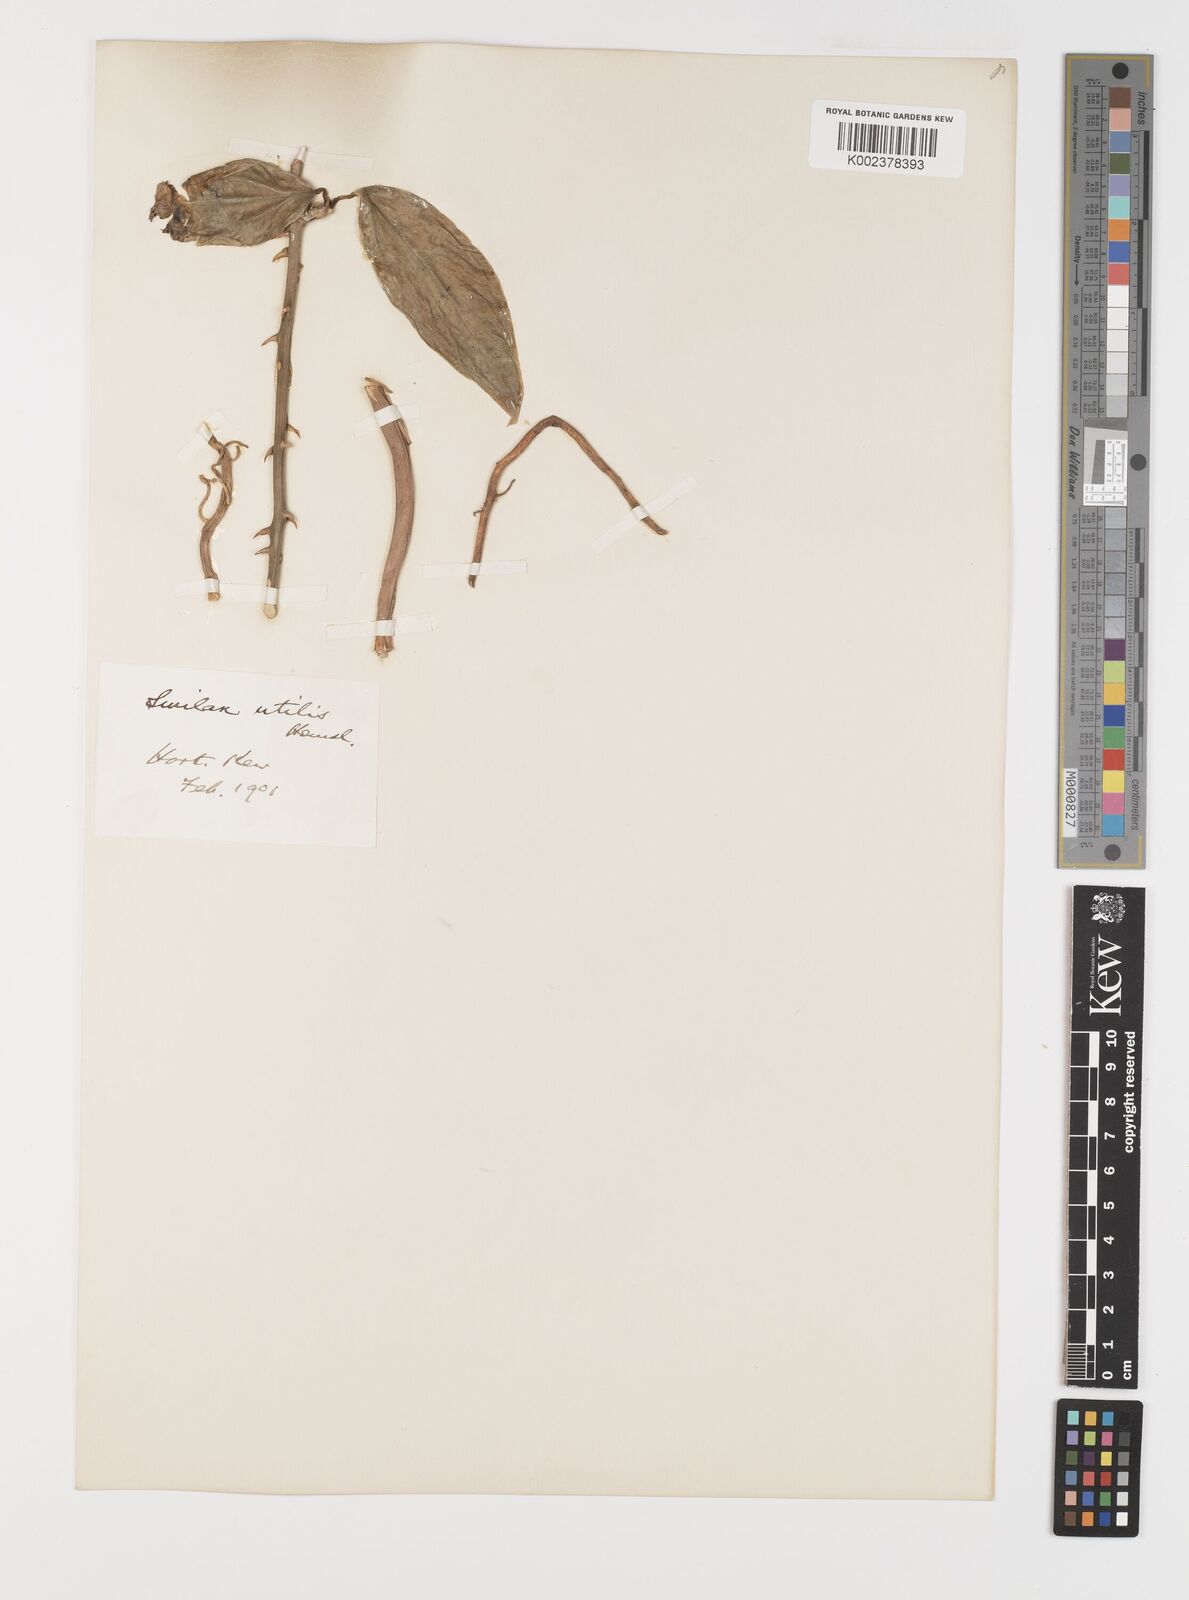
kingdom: Plantae
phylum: Tracheophyta
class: Liliopsida
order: Liliales
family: Smilacaceae
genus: Smilax
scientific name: Smilax ornata
